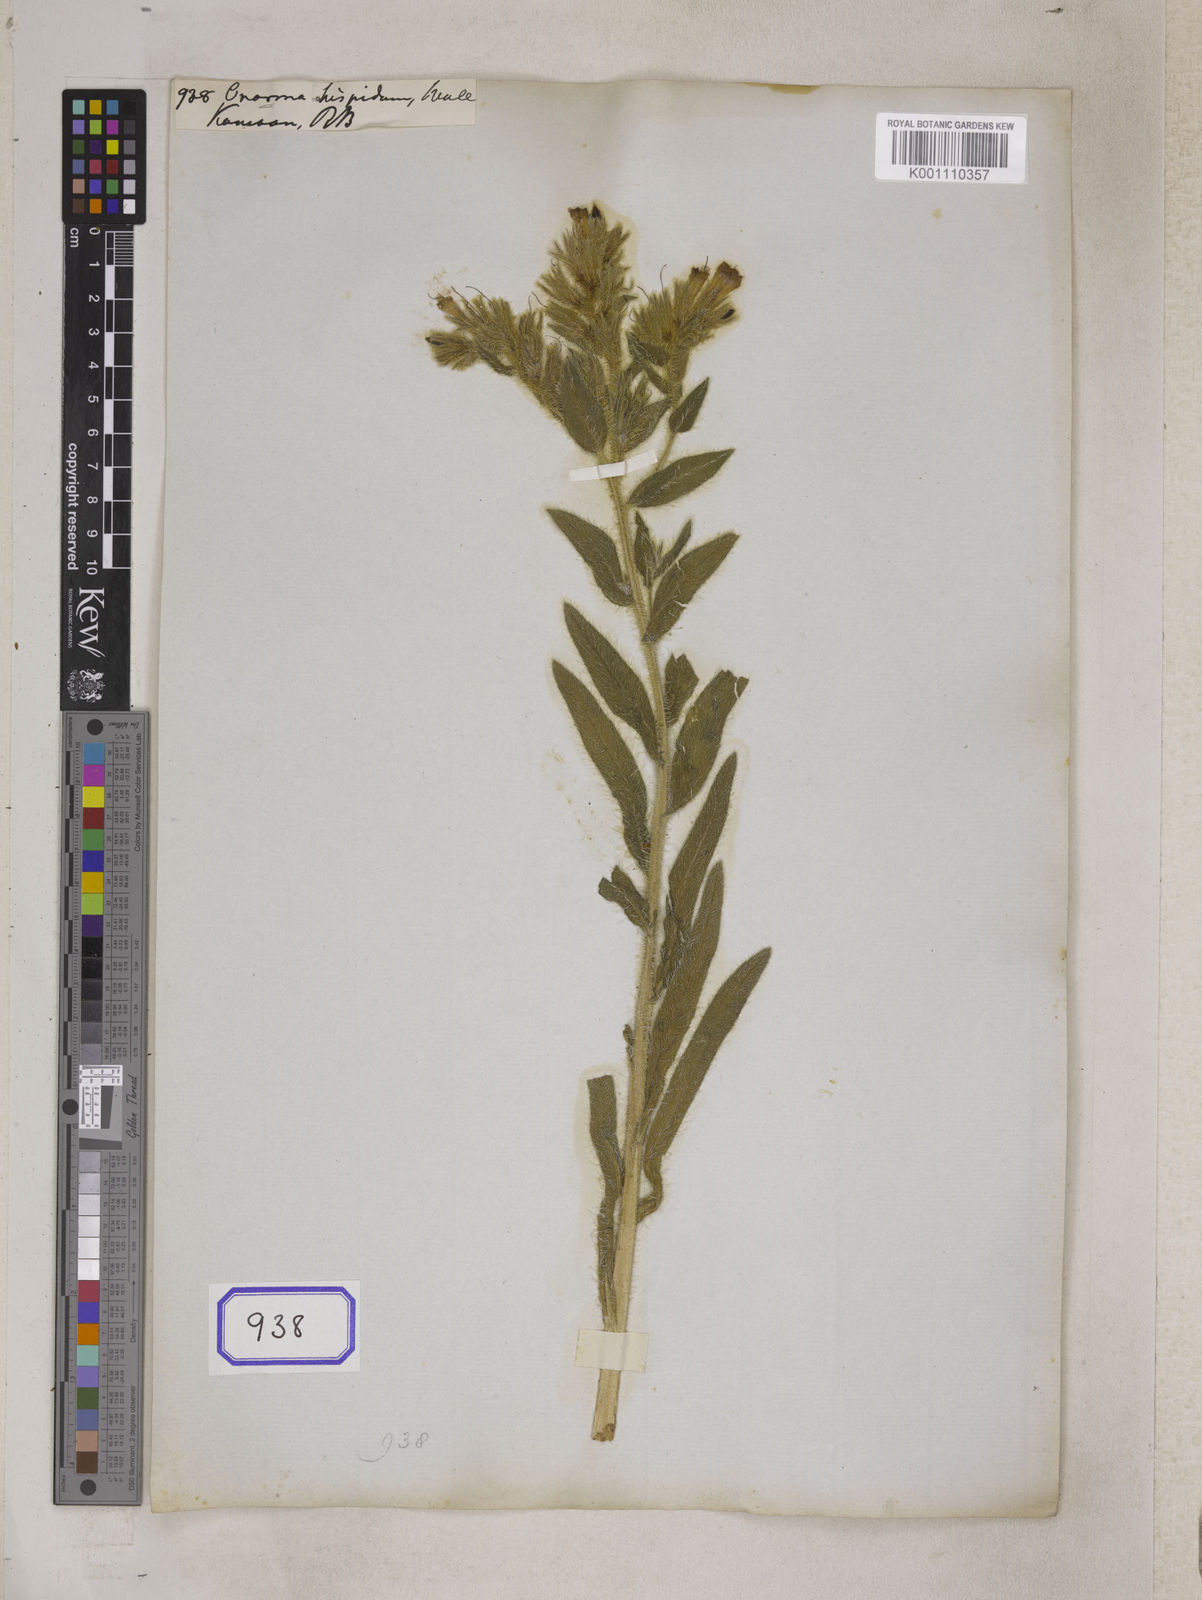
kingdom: Plantae
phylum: Tracheophyta
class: Magnoliopsida
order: Boraginales
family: Boraginaceae
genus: Onosma
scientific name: Onosma
